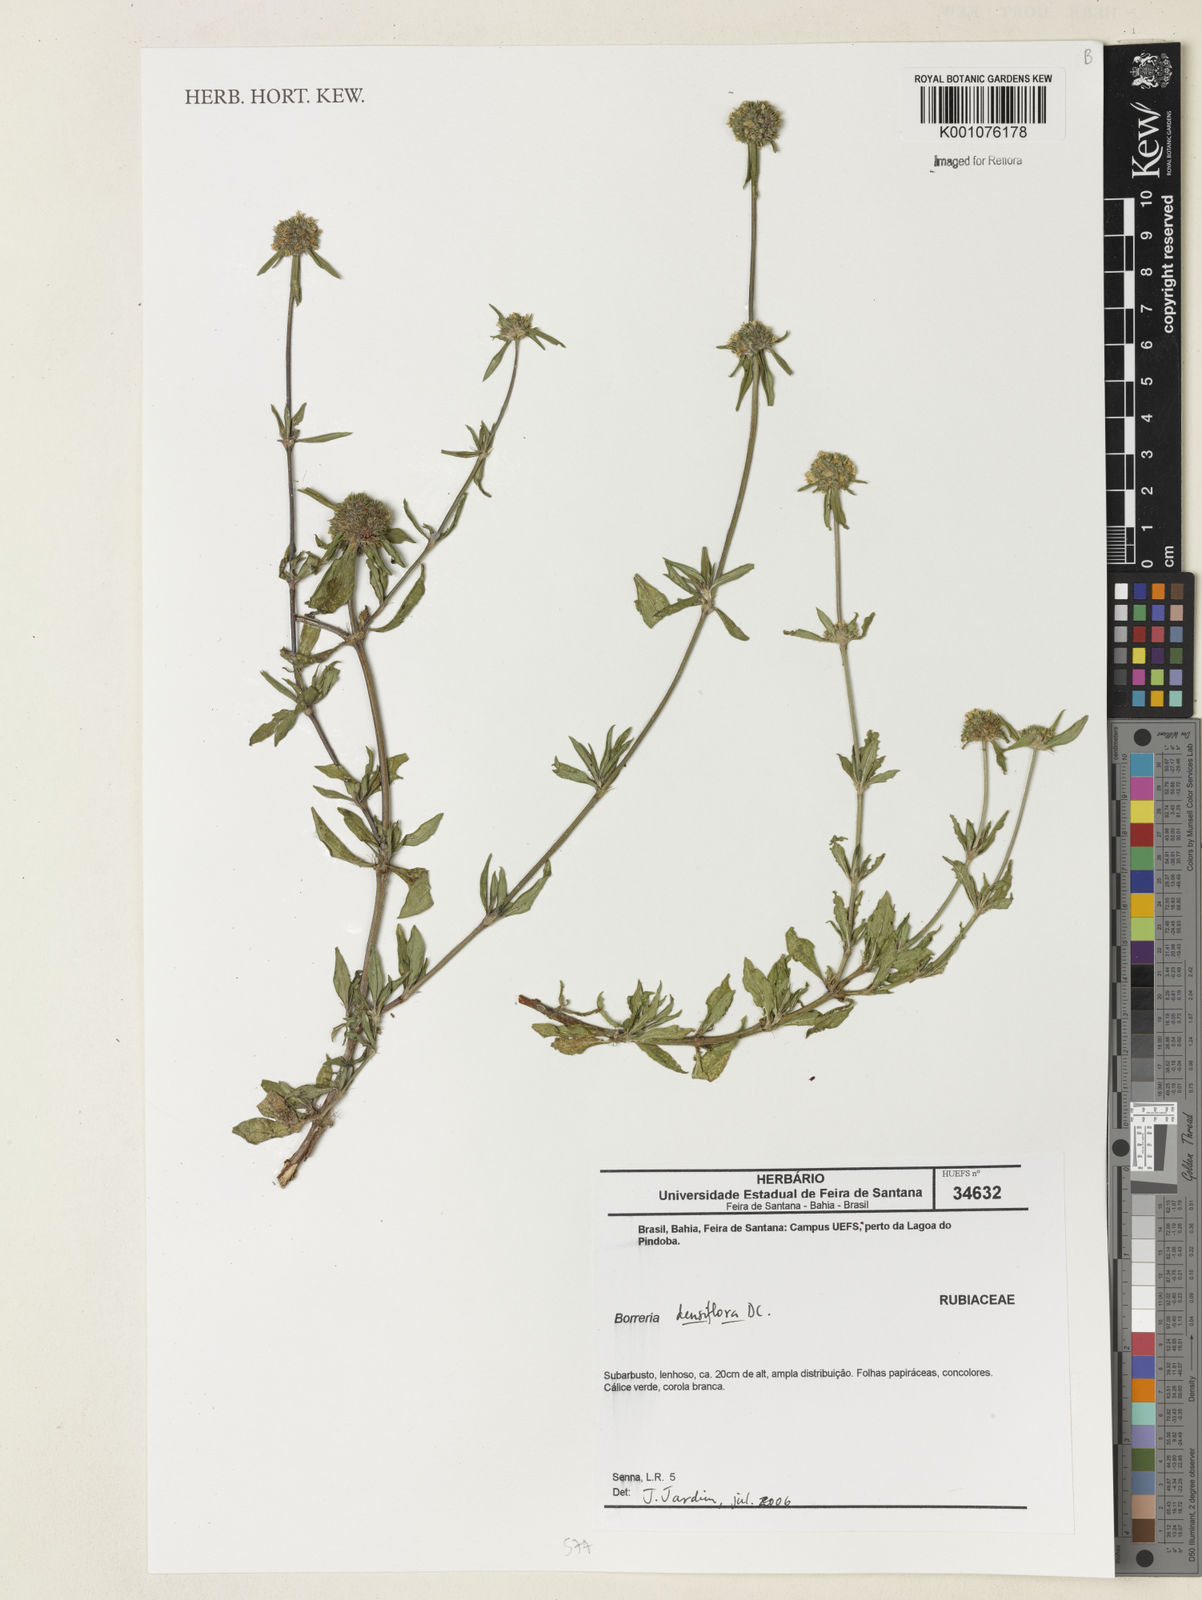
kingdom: Plantae
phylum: Tracheophyta
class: Magnoliopsida
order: Gentianales
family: Rubiaceae
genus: Spermacoce
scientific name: Spermacoce densiflora
